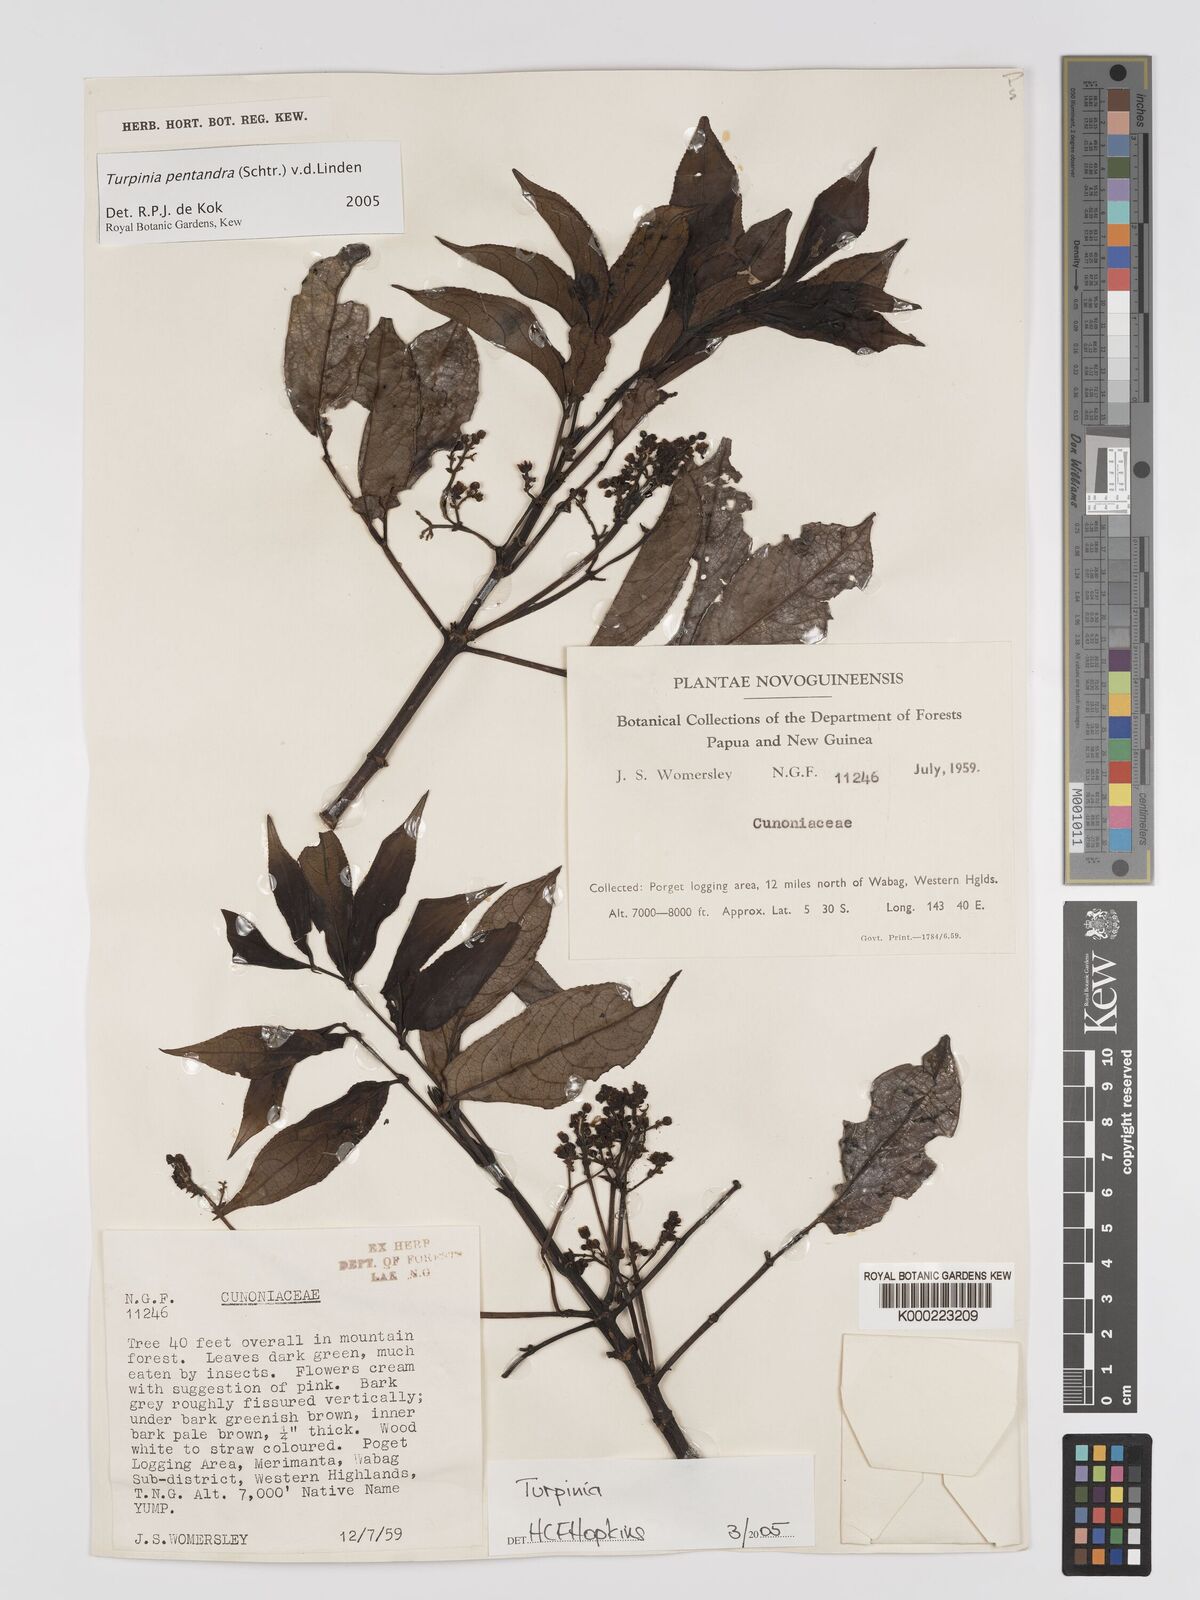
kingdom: Plantae
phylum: Tracheophyta
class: Magnoliopsida
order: Crossosomatales
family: Staphyleaceae
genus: Turpinia
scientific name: Turpinia pentandra
